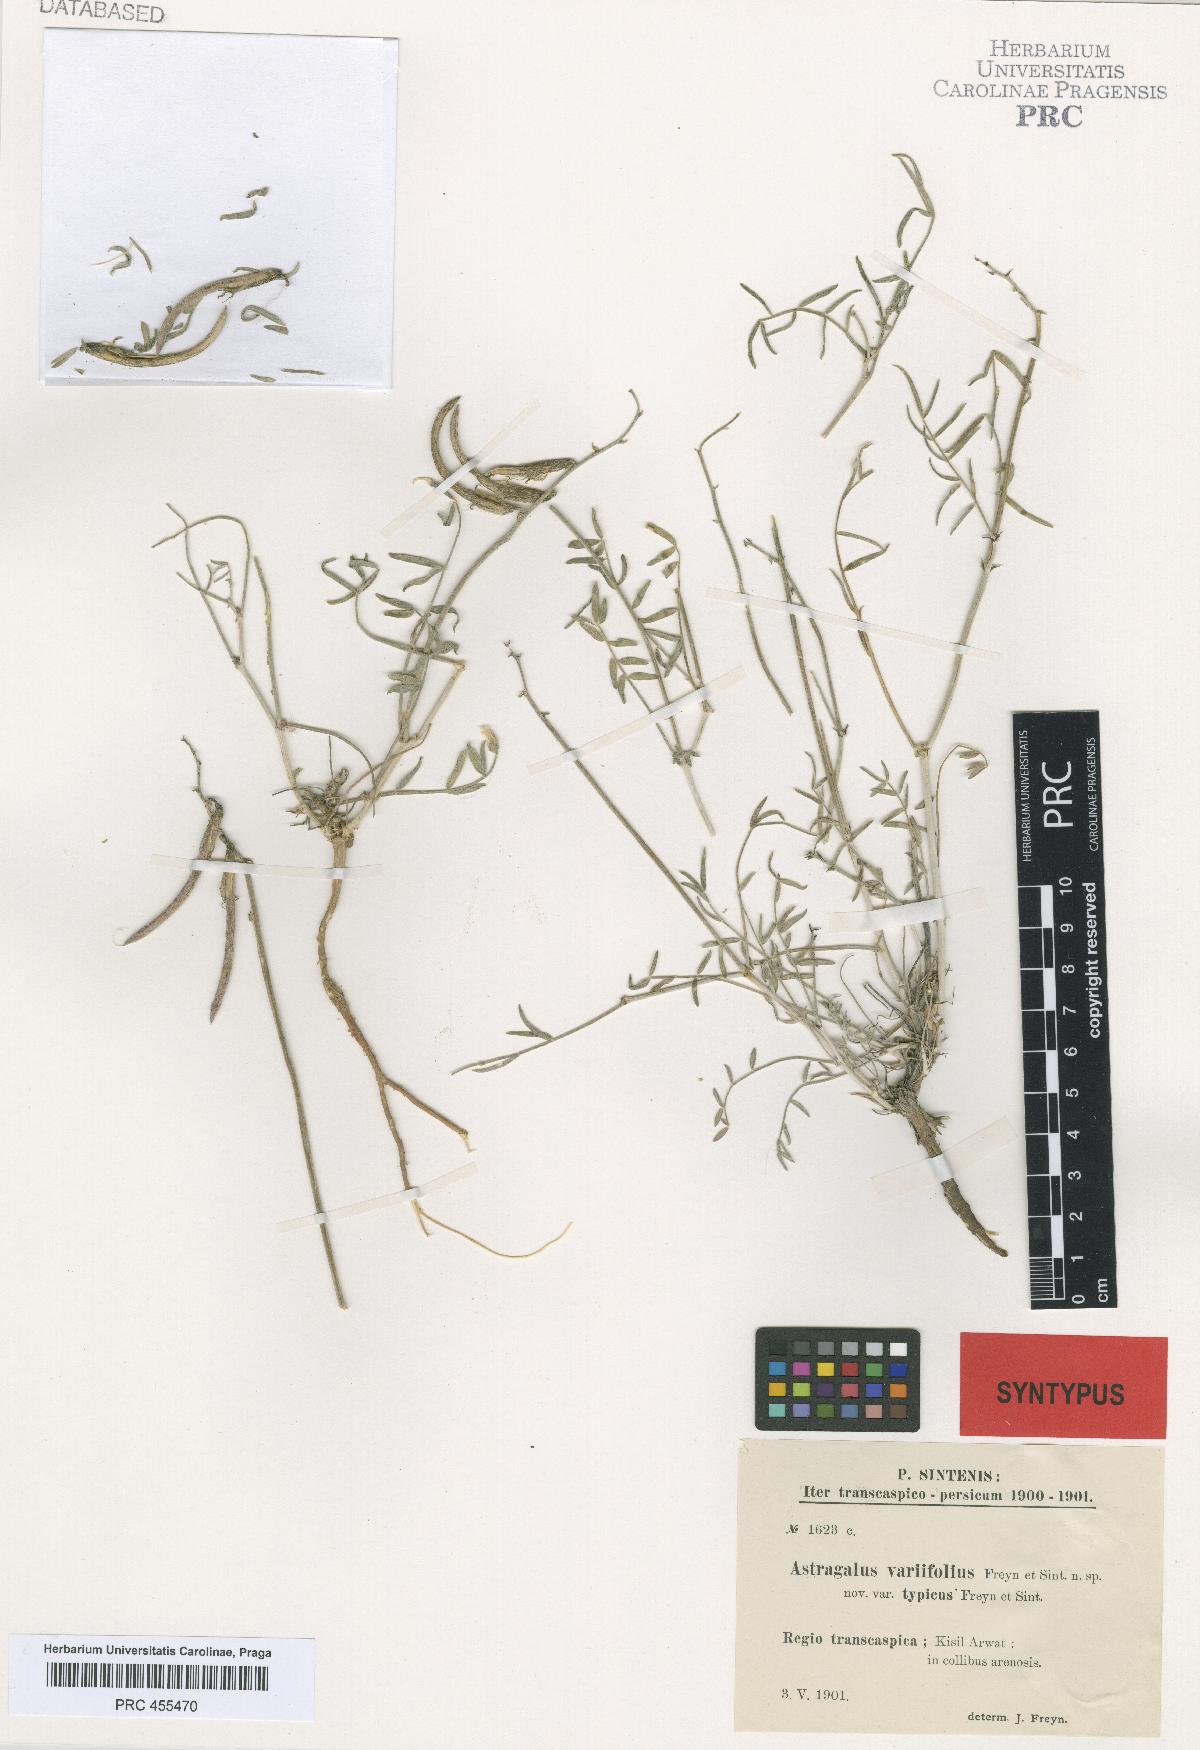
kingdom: Plantae
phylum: Tracheophyta
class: Magnoliopsida
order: Fabales
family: Fabaceae
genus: Astragalus
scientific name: Astragalus juratzkanus
